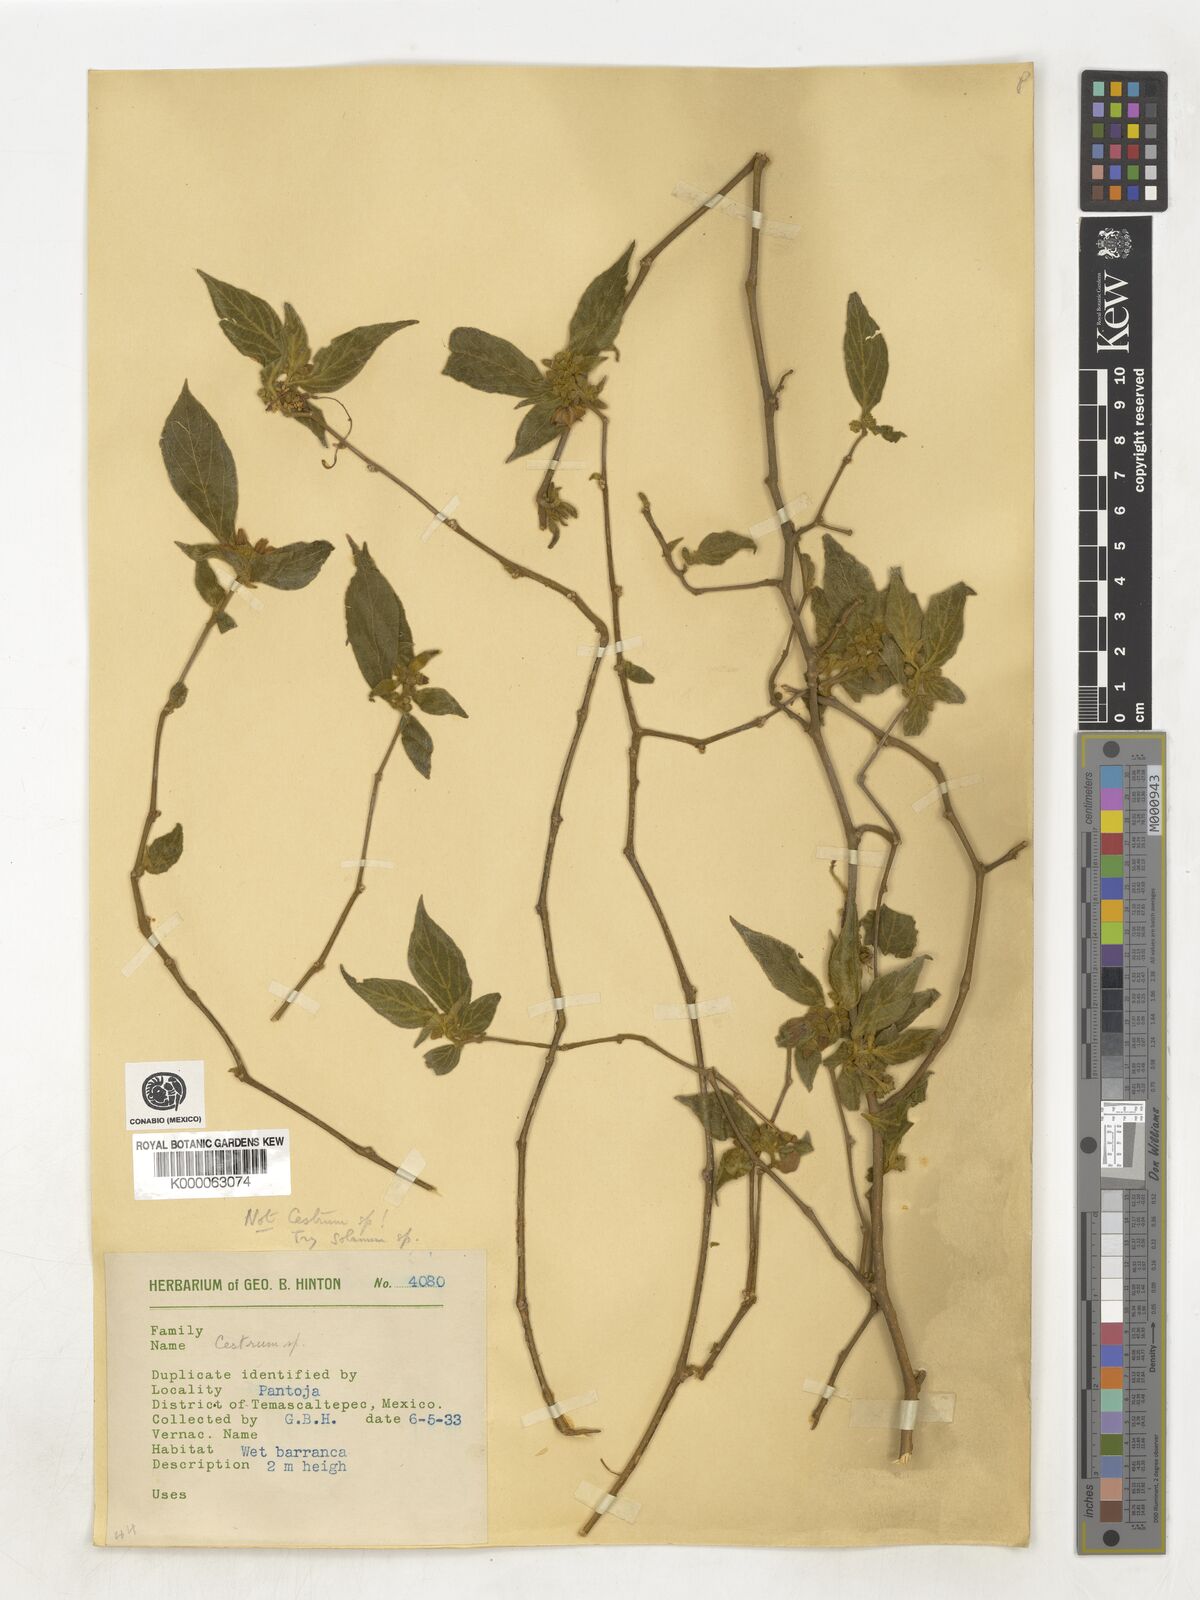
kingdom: Plantae
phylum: Tracheophyta
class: Magnoliopsida
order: Solanales
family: Solanaceae
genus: Lycianthes
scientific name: Lycianthes
